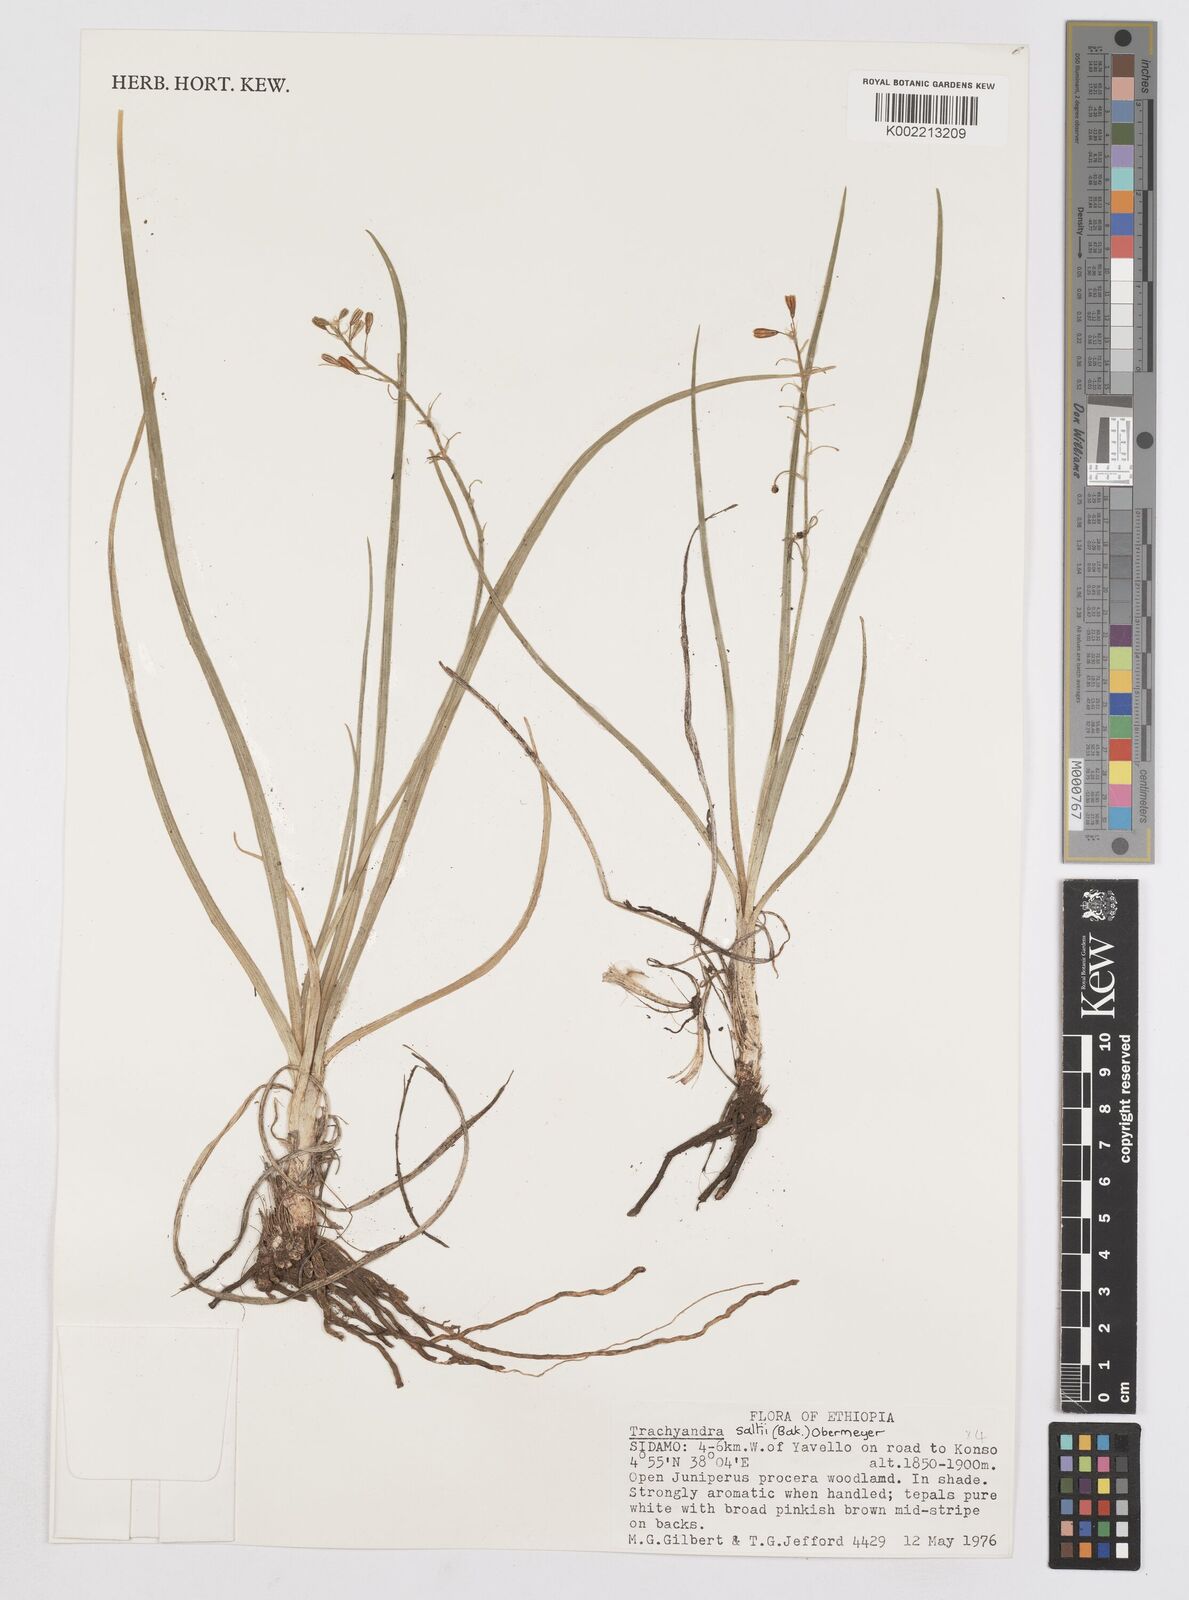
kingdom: Plantae
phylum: Tracheophyta
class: Liliopsida
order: Asparagales
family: Asphodelaceae
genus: Trachyandra
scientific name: Trachyandra saltii
